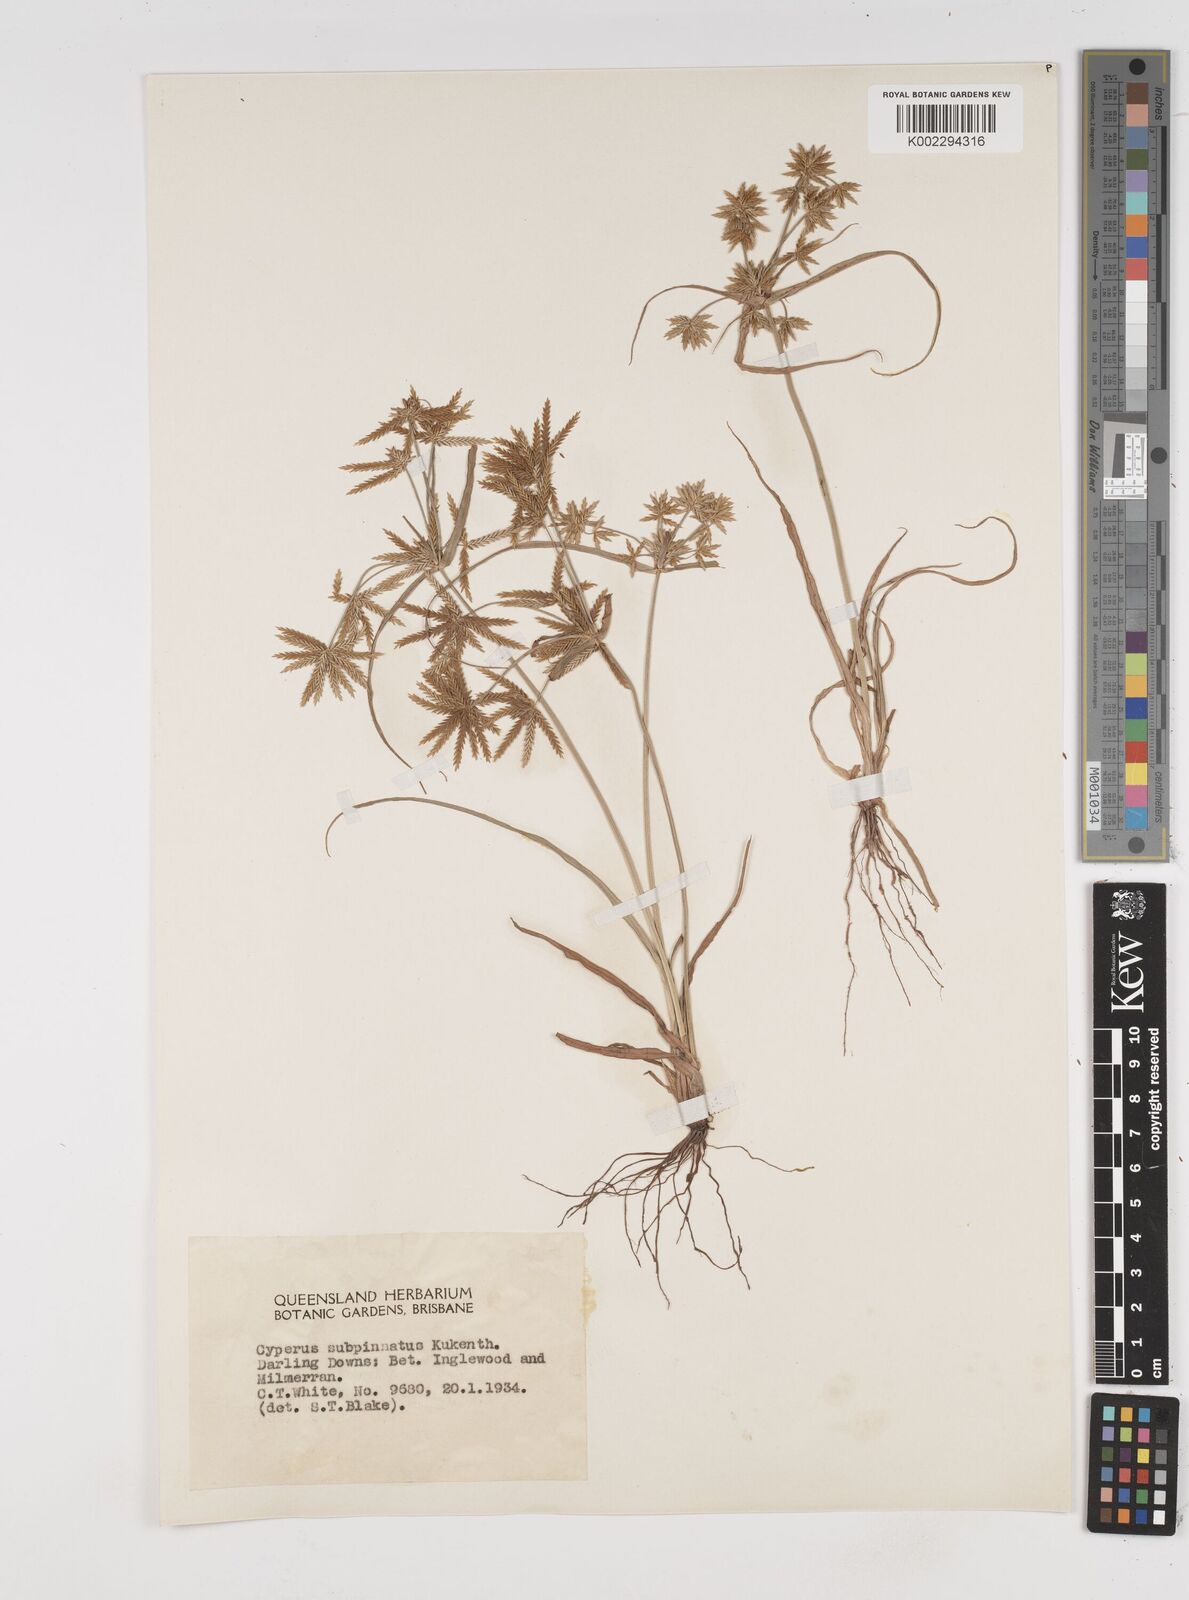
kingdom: Plantae
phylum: Tracheophyta
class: Liliopsida
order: Poales
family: Cyperaceae
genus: Cyperus
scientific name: Cyperus rigidellus
